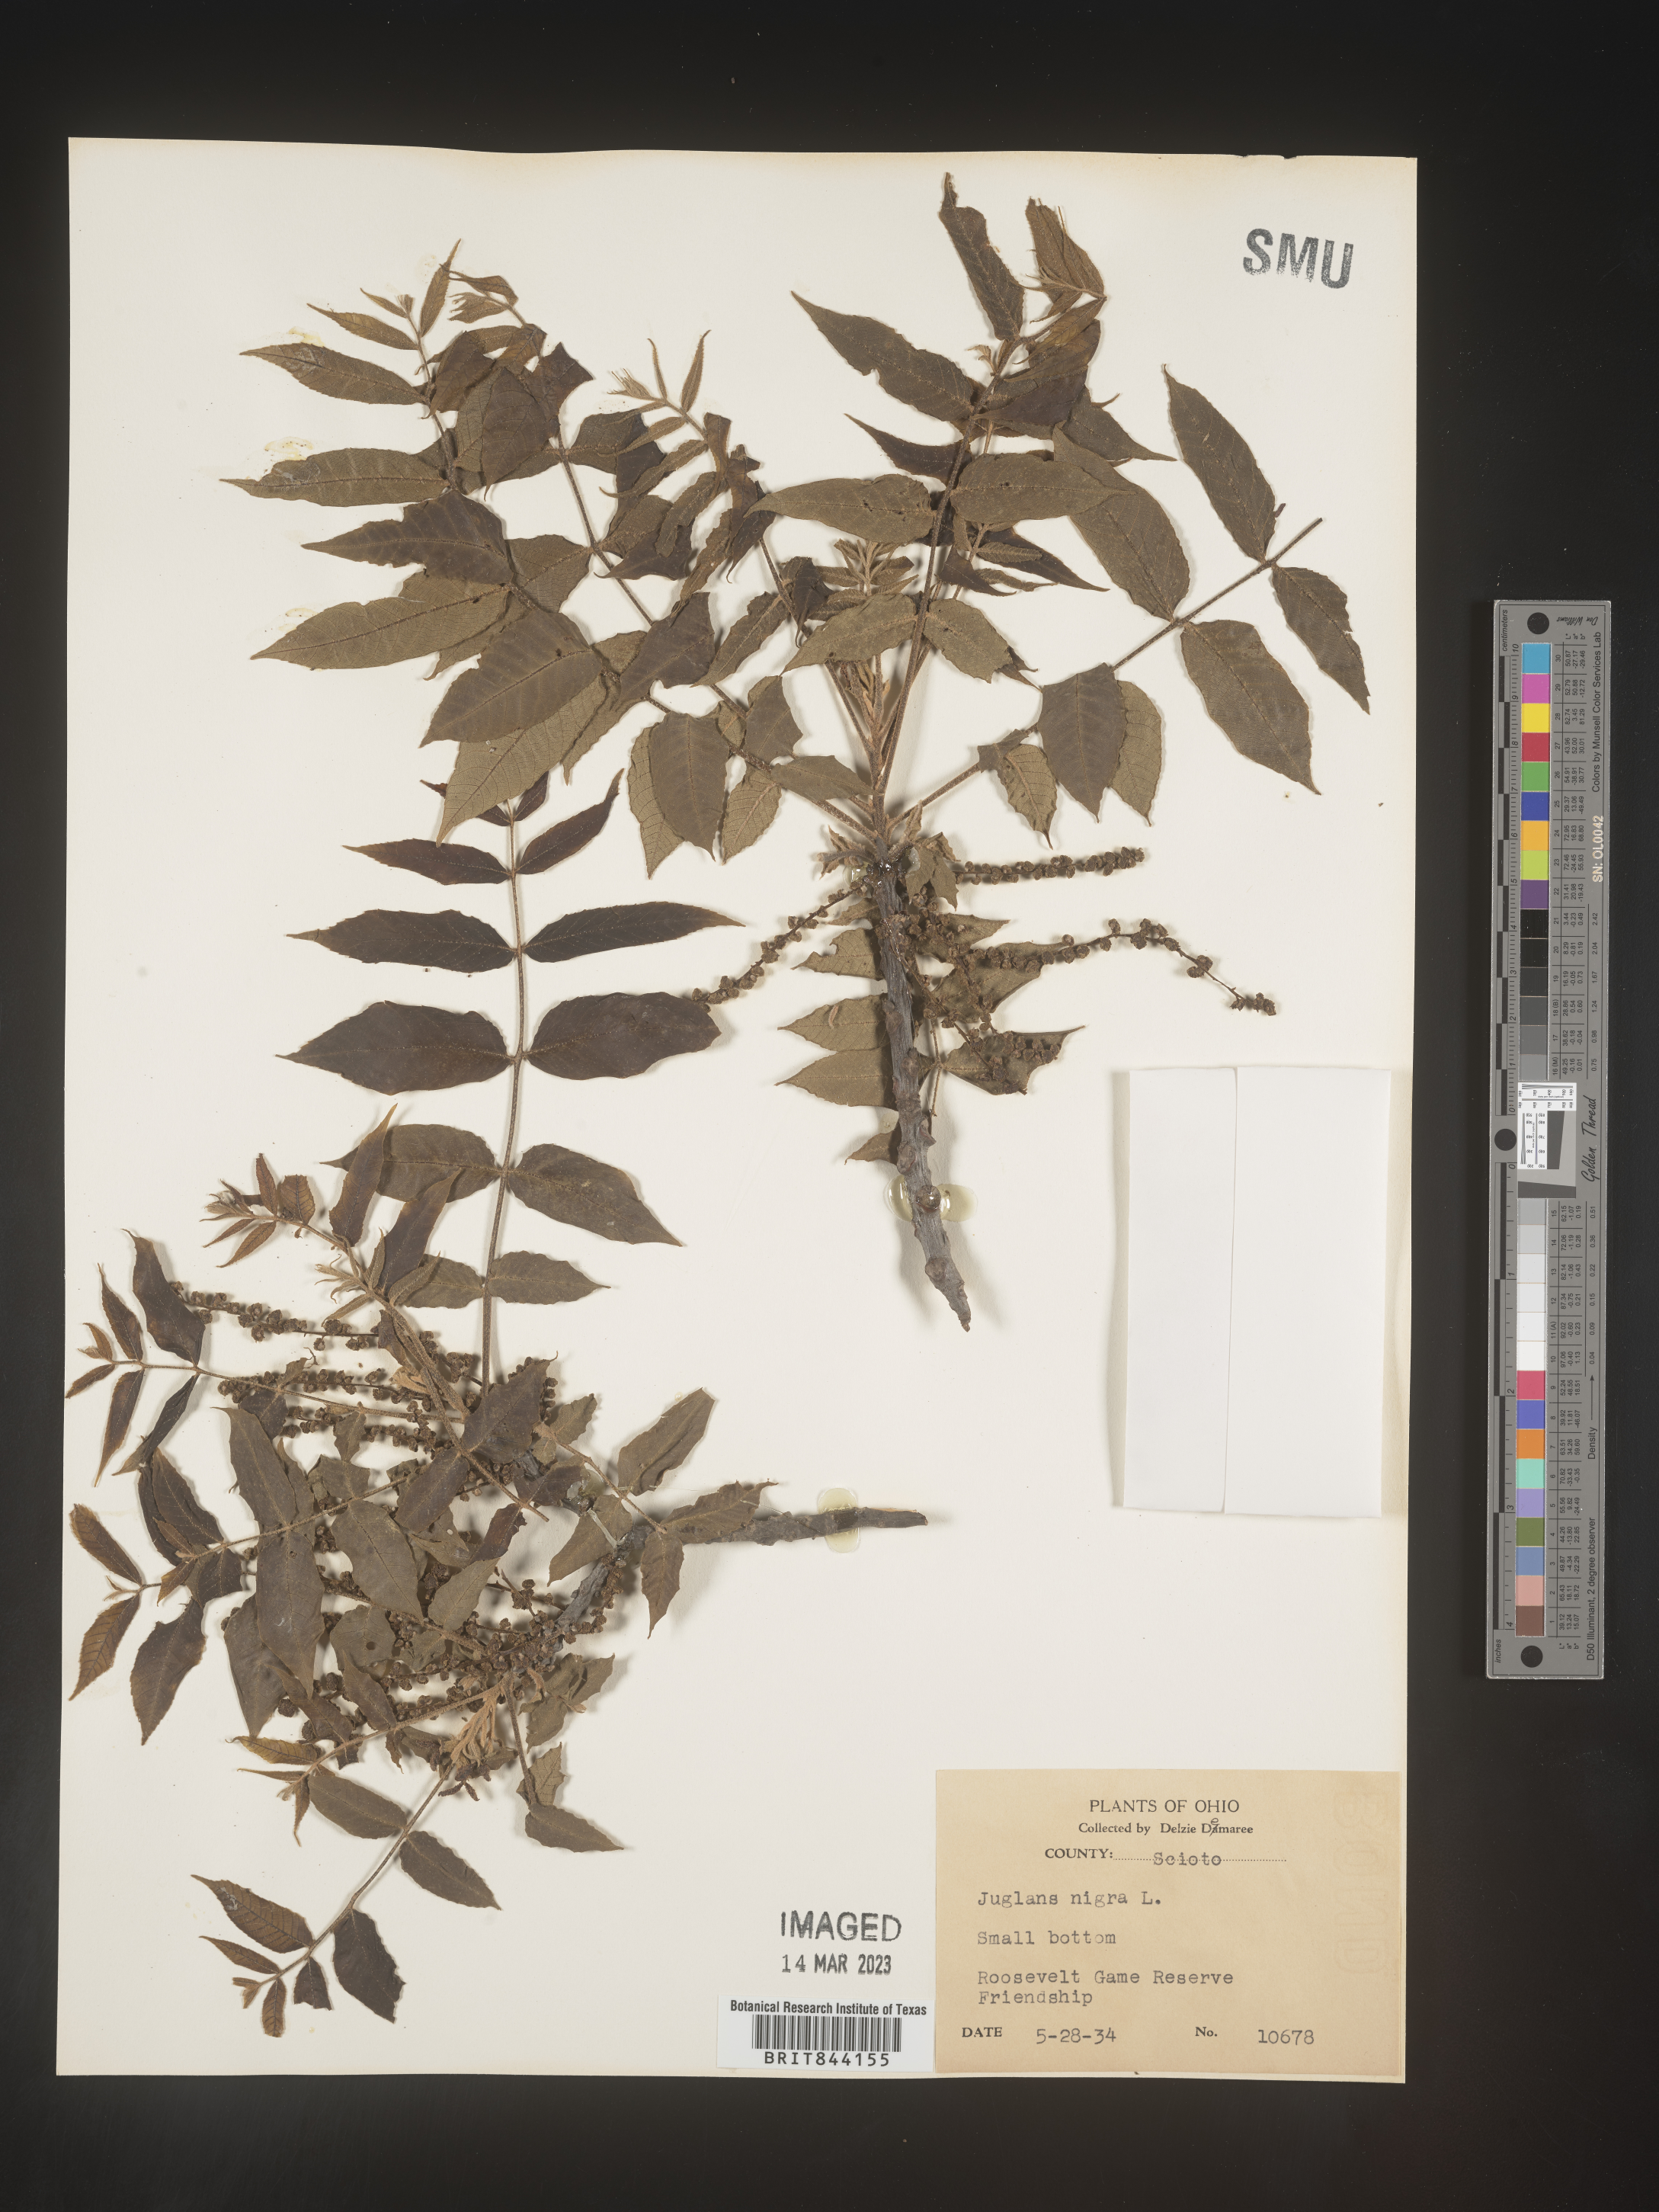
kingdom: Plantae
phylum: Tracheophyta
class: Magnoliopsida
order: Fagales
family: Juglandaceae
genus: Juglans
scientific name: Juglans nigra
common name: Black walnut
